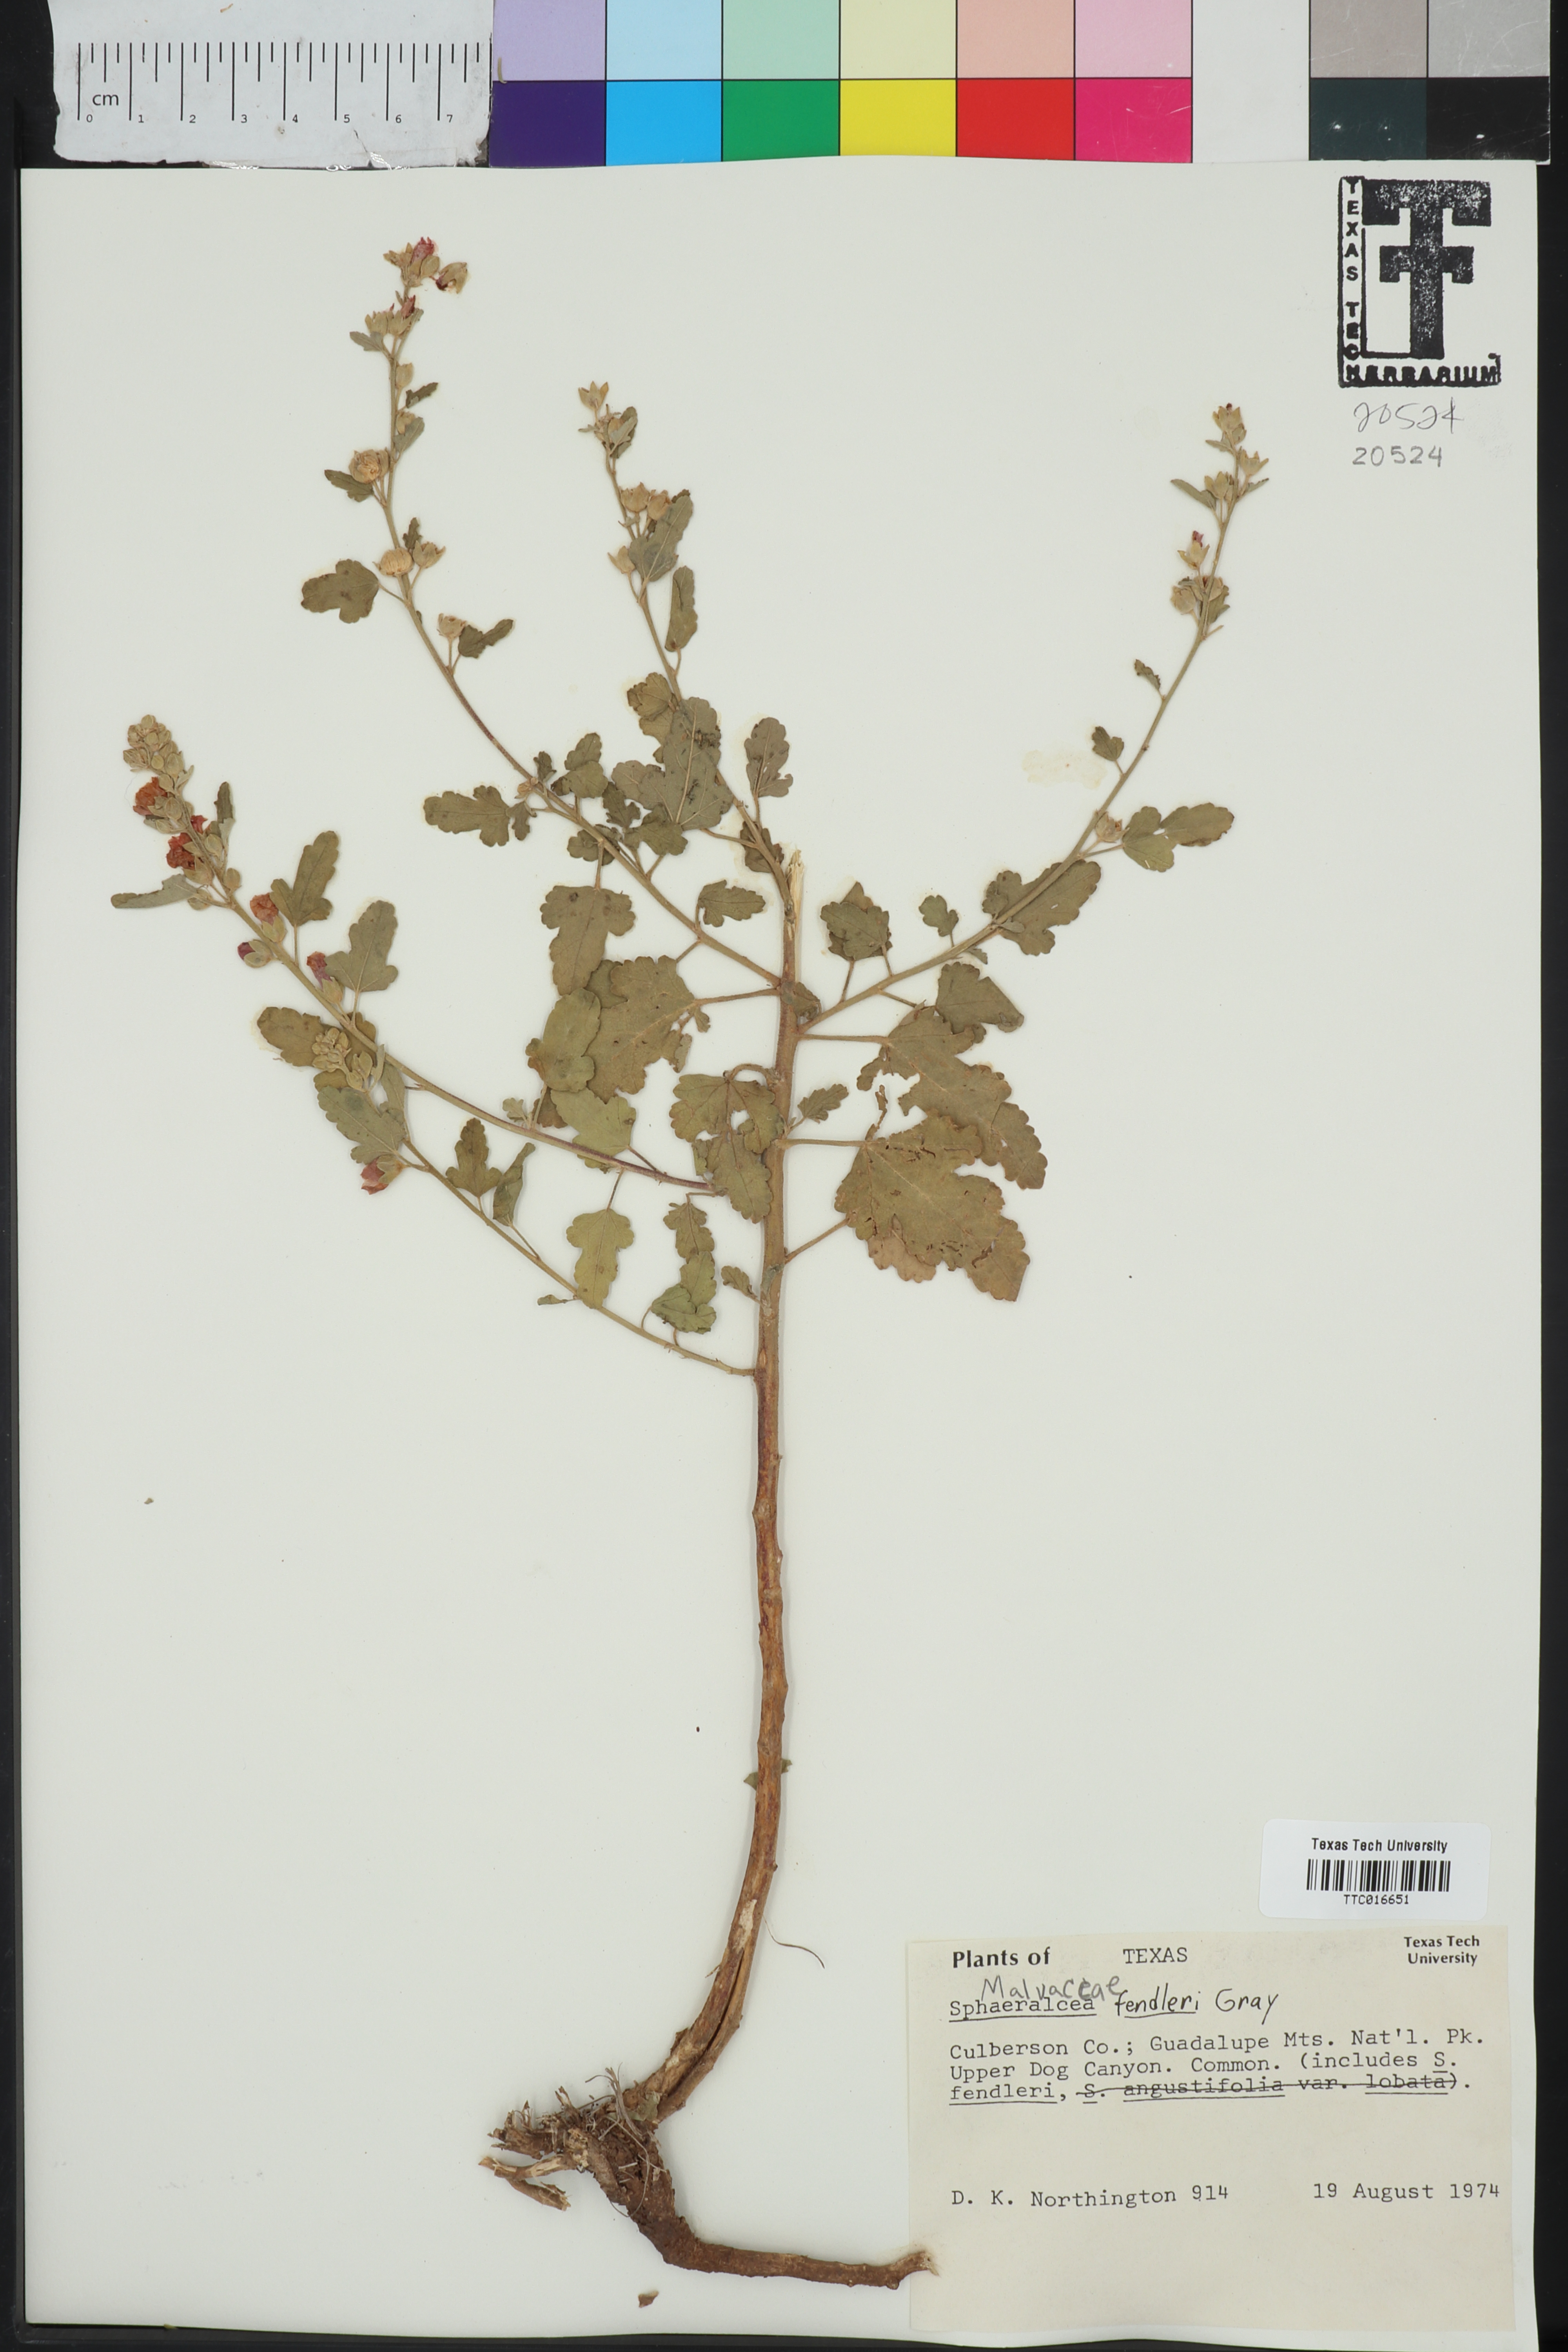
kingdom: Plantae
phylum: Tracheophyta
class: Magnoliopsida
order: Malvales
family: Malvaceae
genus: Sphaeralcea
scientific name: Sphaeralcea fendleri
